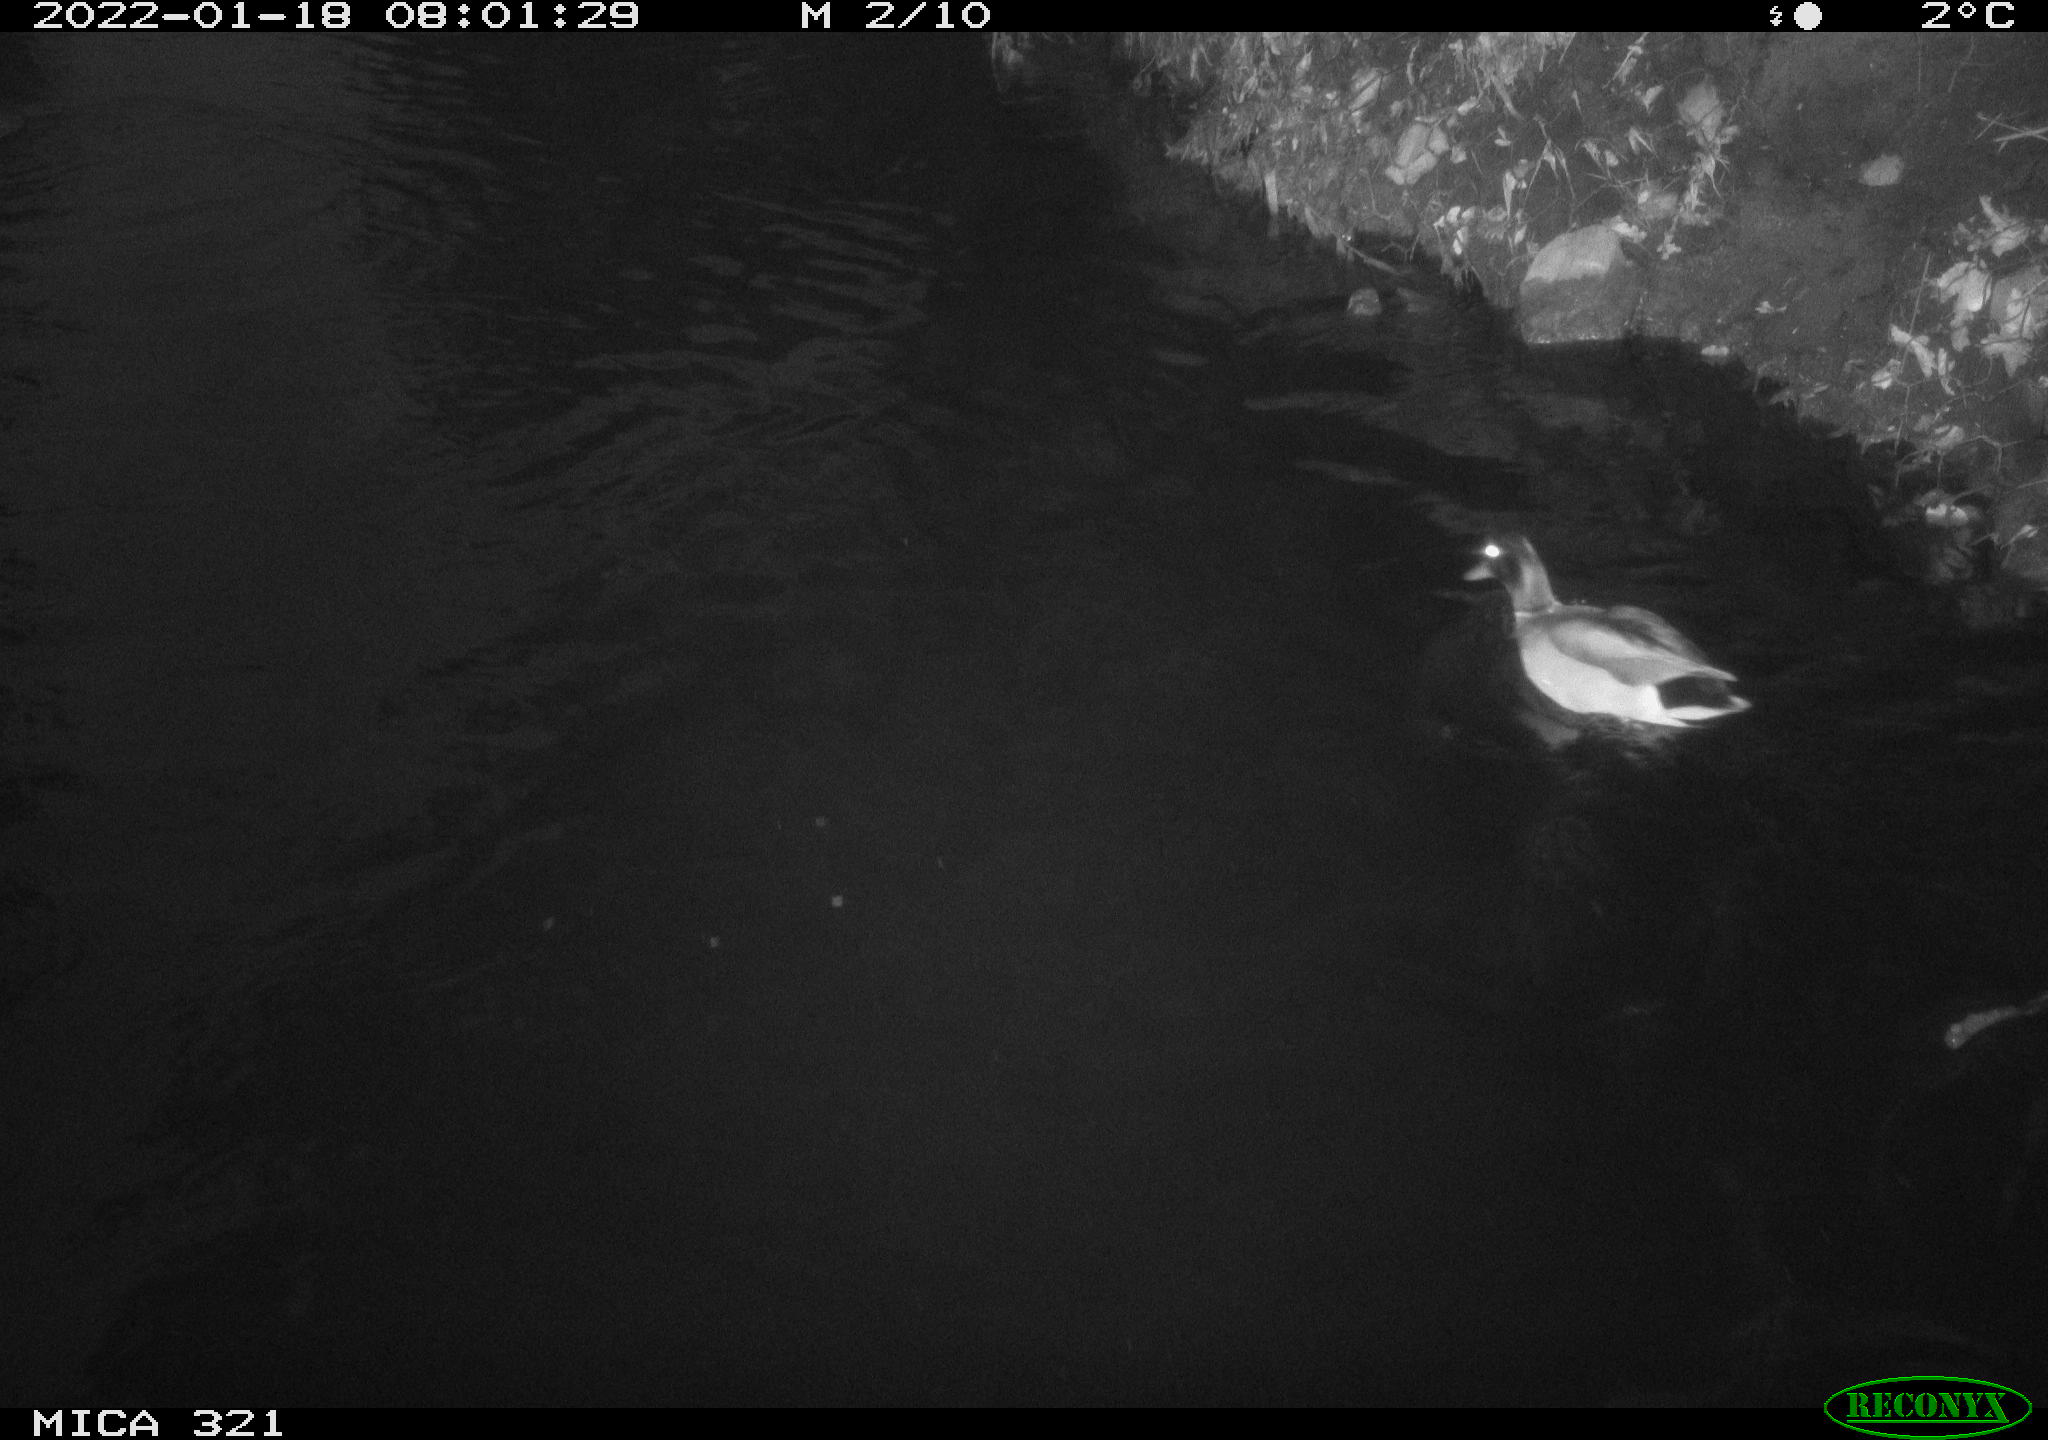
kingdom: Animalia
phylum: Chordata
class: Aves
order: Anseriformes
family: Anatidae
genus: Anas
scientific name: Anas
